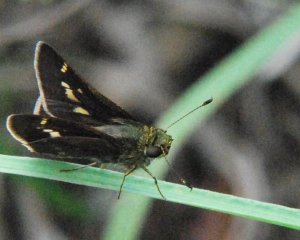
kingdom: Animalia
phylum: Arthropoda
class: Insecta
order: Lepidoptera
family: Hesperiidae
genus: Vernia
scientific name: Vernia verna
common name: Little Glassywing
